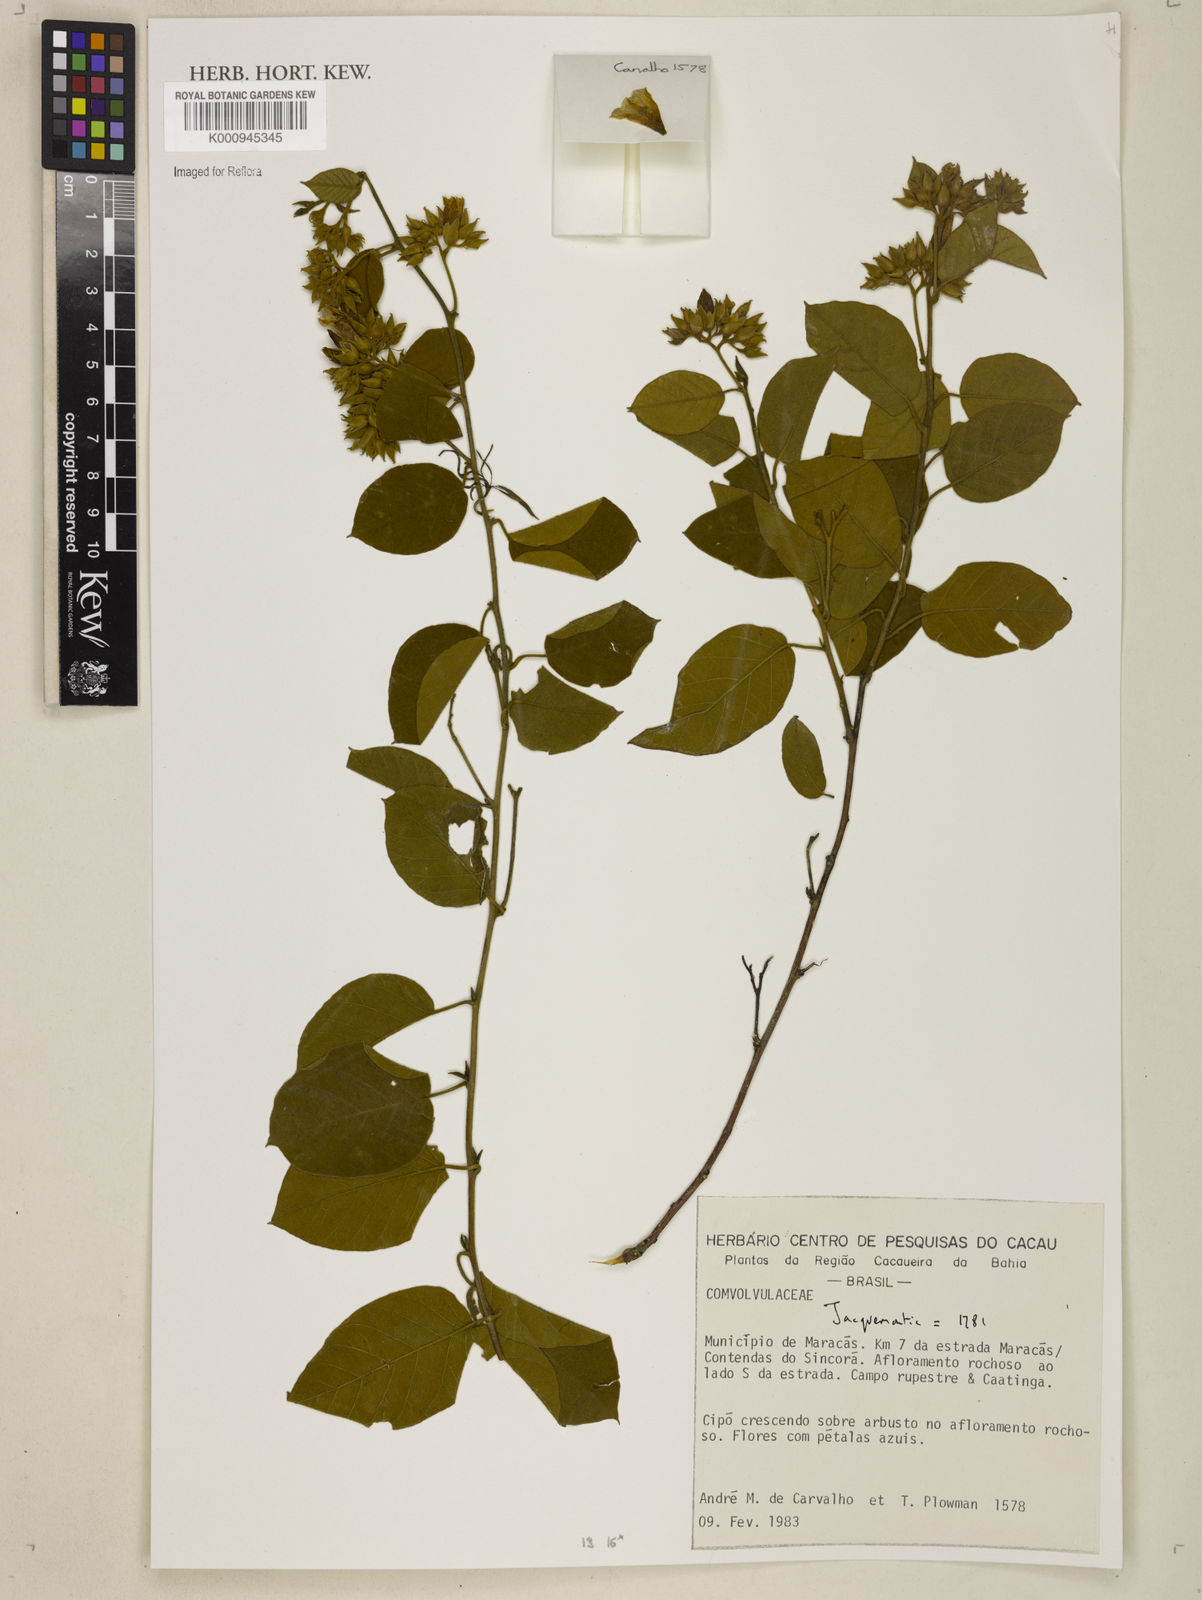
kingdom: Plantae
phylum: Tracheophyta
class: Magnoliopsida
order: Solanales
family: Convolvulaceae
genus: Jacquemontia
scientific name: Jacquemontia
